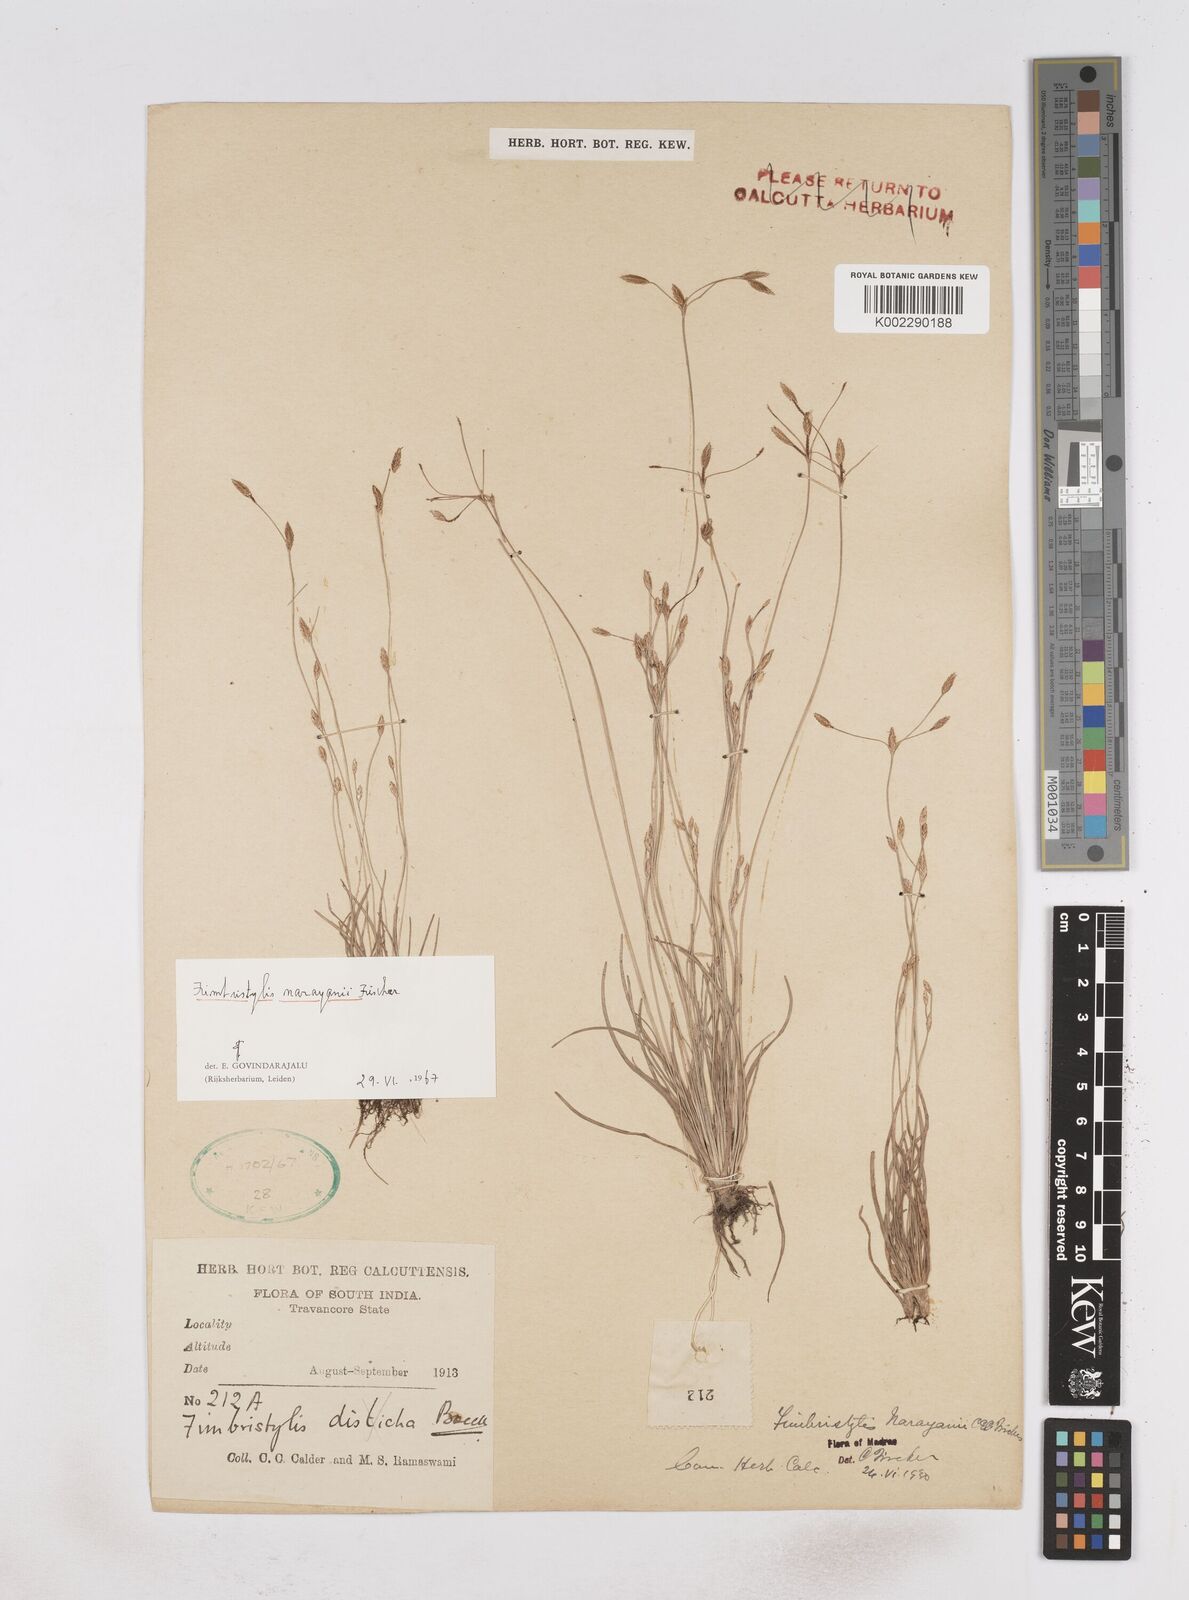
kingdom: Plantae
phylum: Tracheophyta
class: Liliopsida
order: Poales
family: Cyperaceae
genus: Fimbristylis
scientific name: Fimbristylis narayanii
